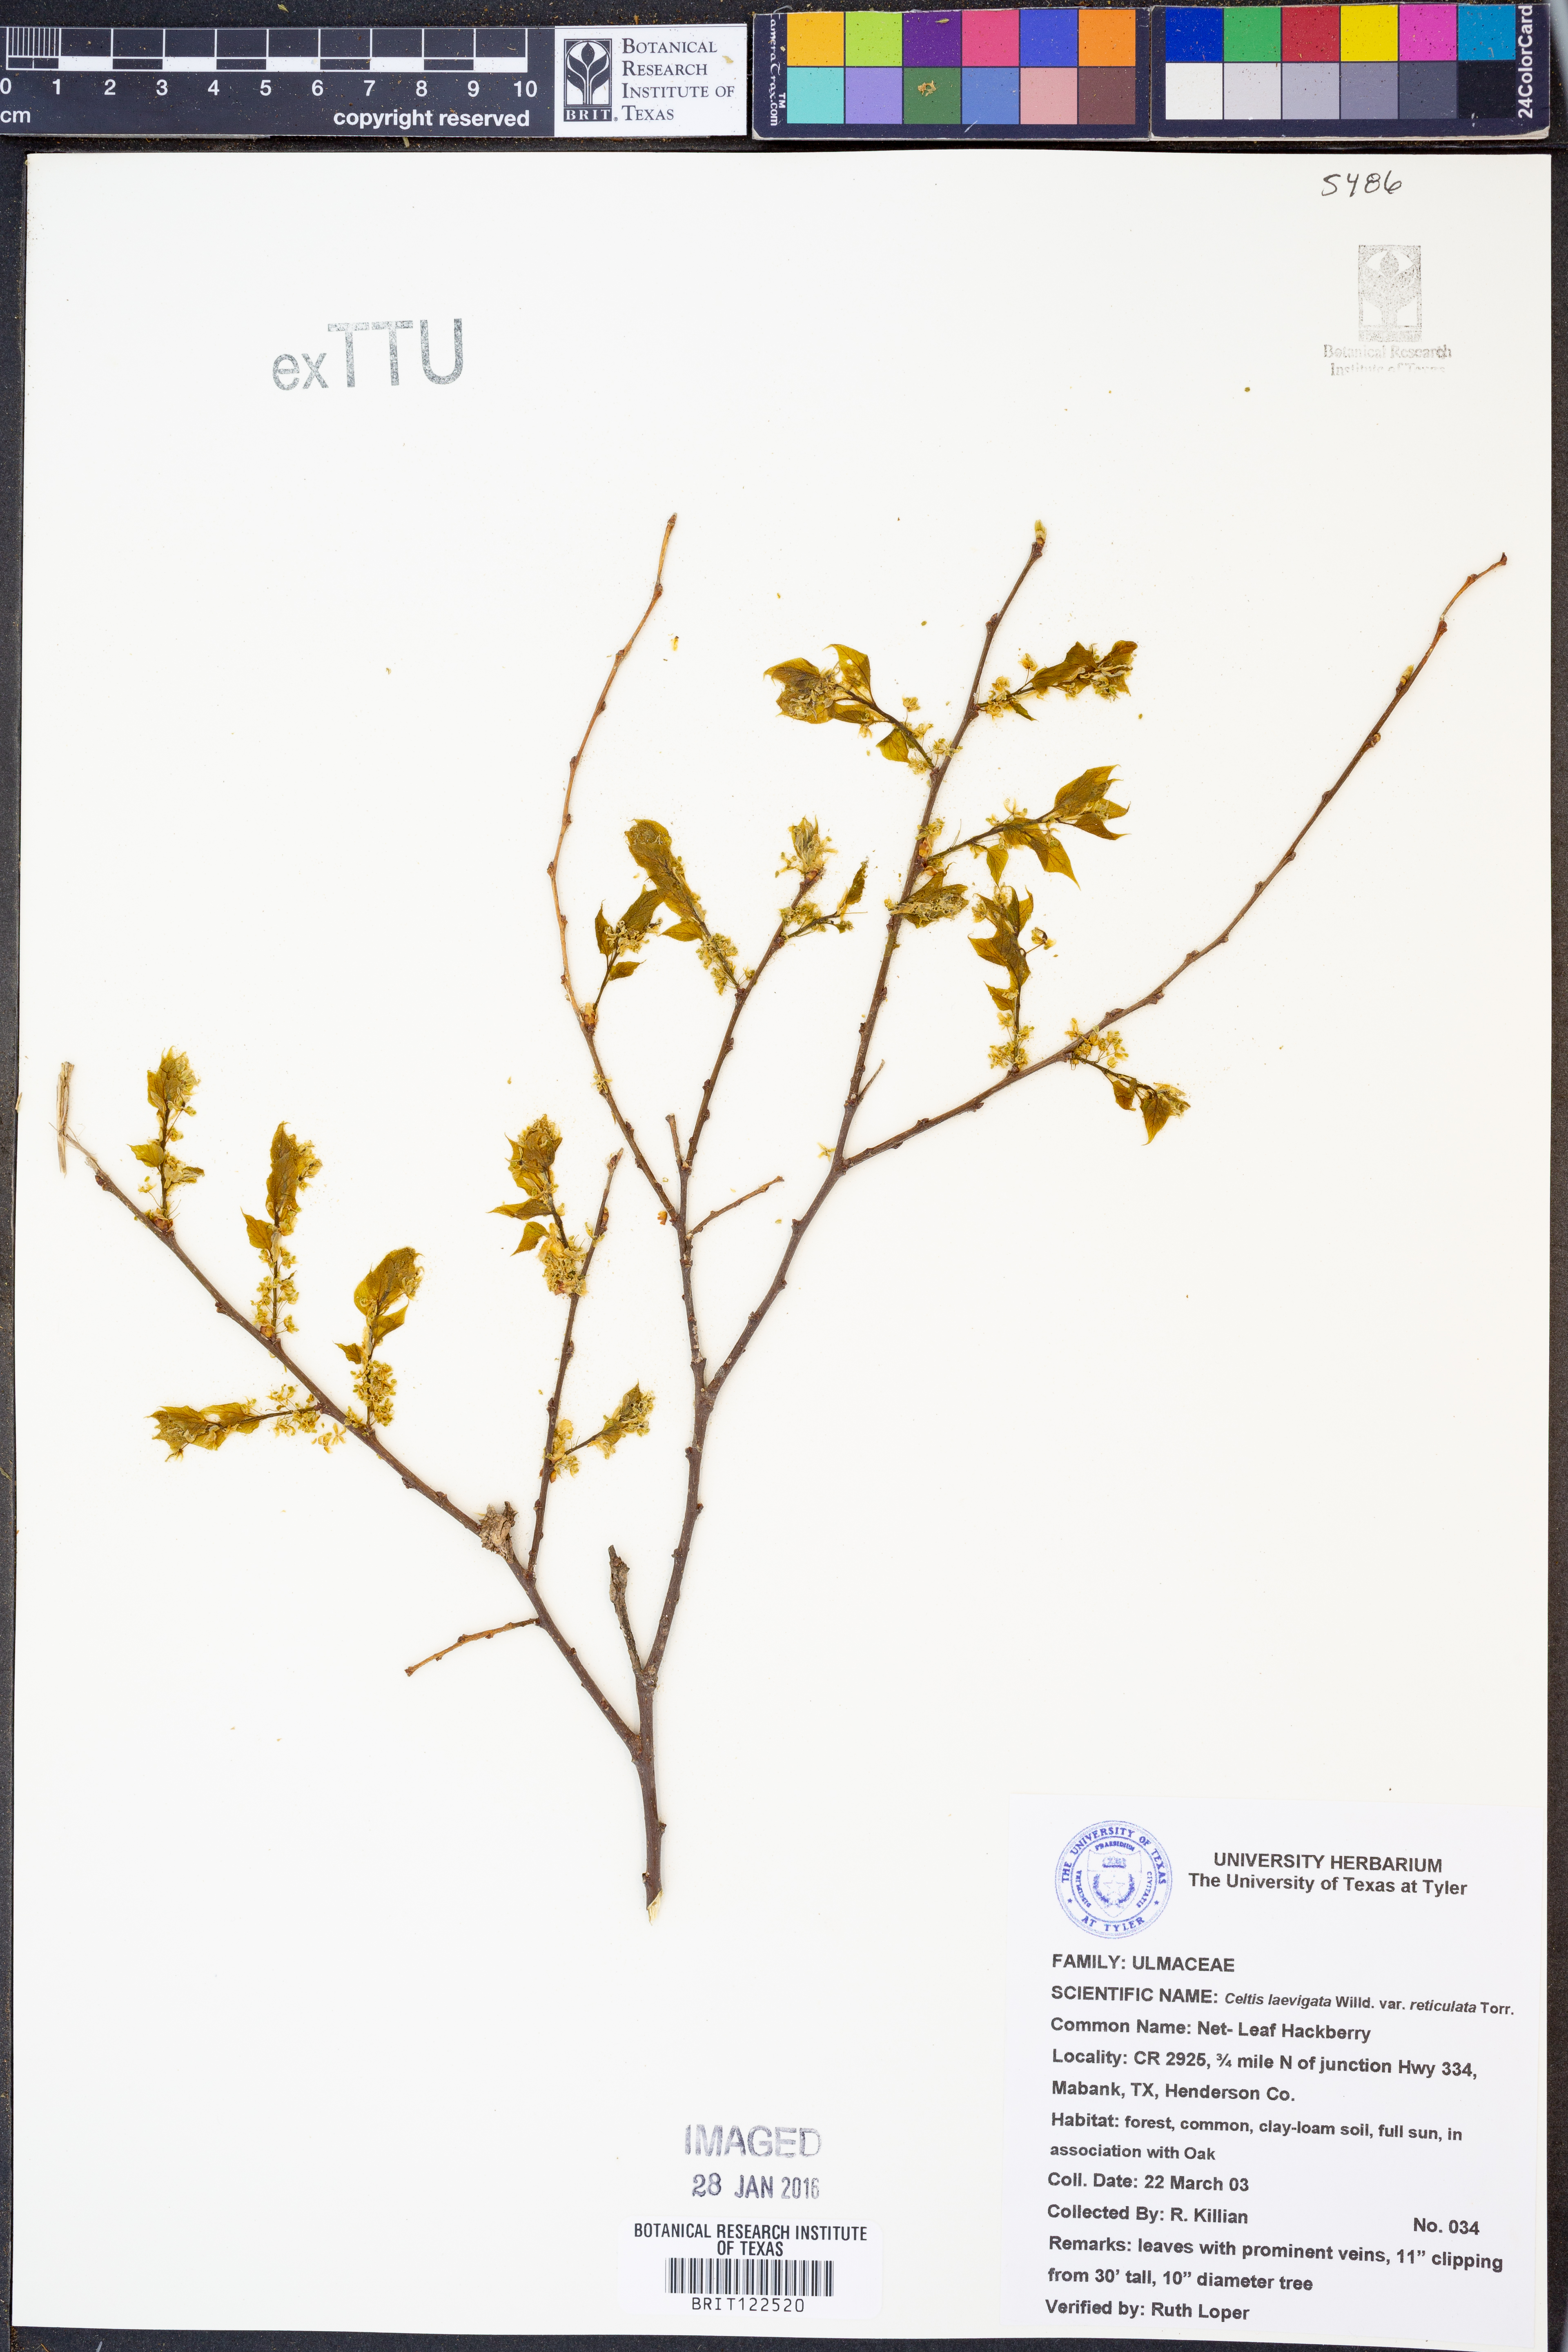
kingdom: Plantae
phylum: Tracheophyta
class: Magnoliopsida
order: Rosales
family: Cannabaceae
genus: Celtis
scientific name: Celtis reticulata
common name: Netleaf hackberry
